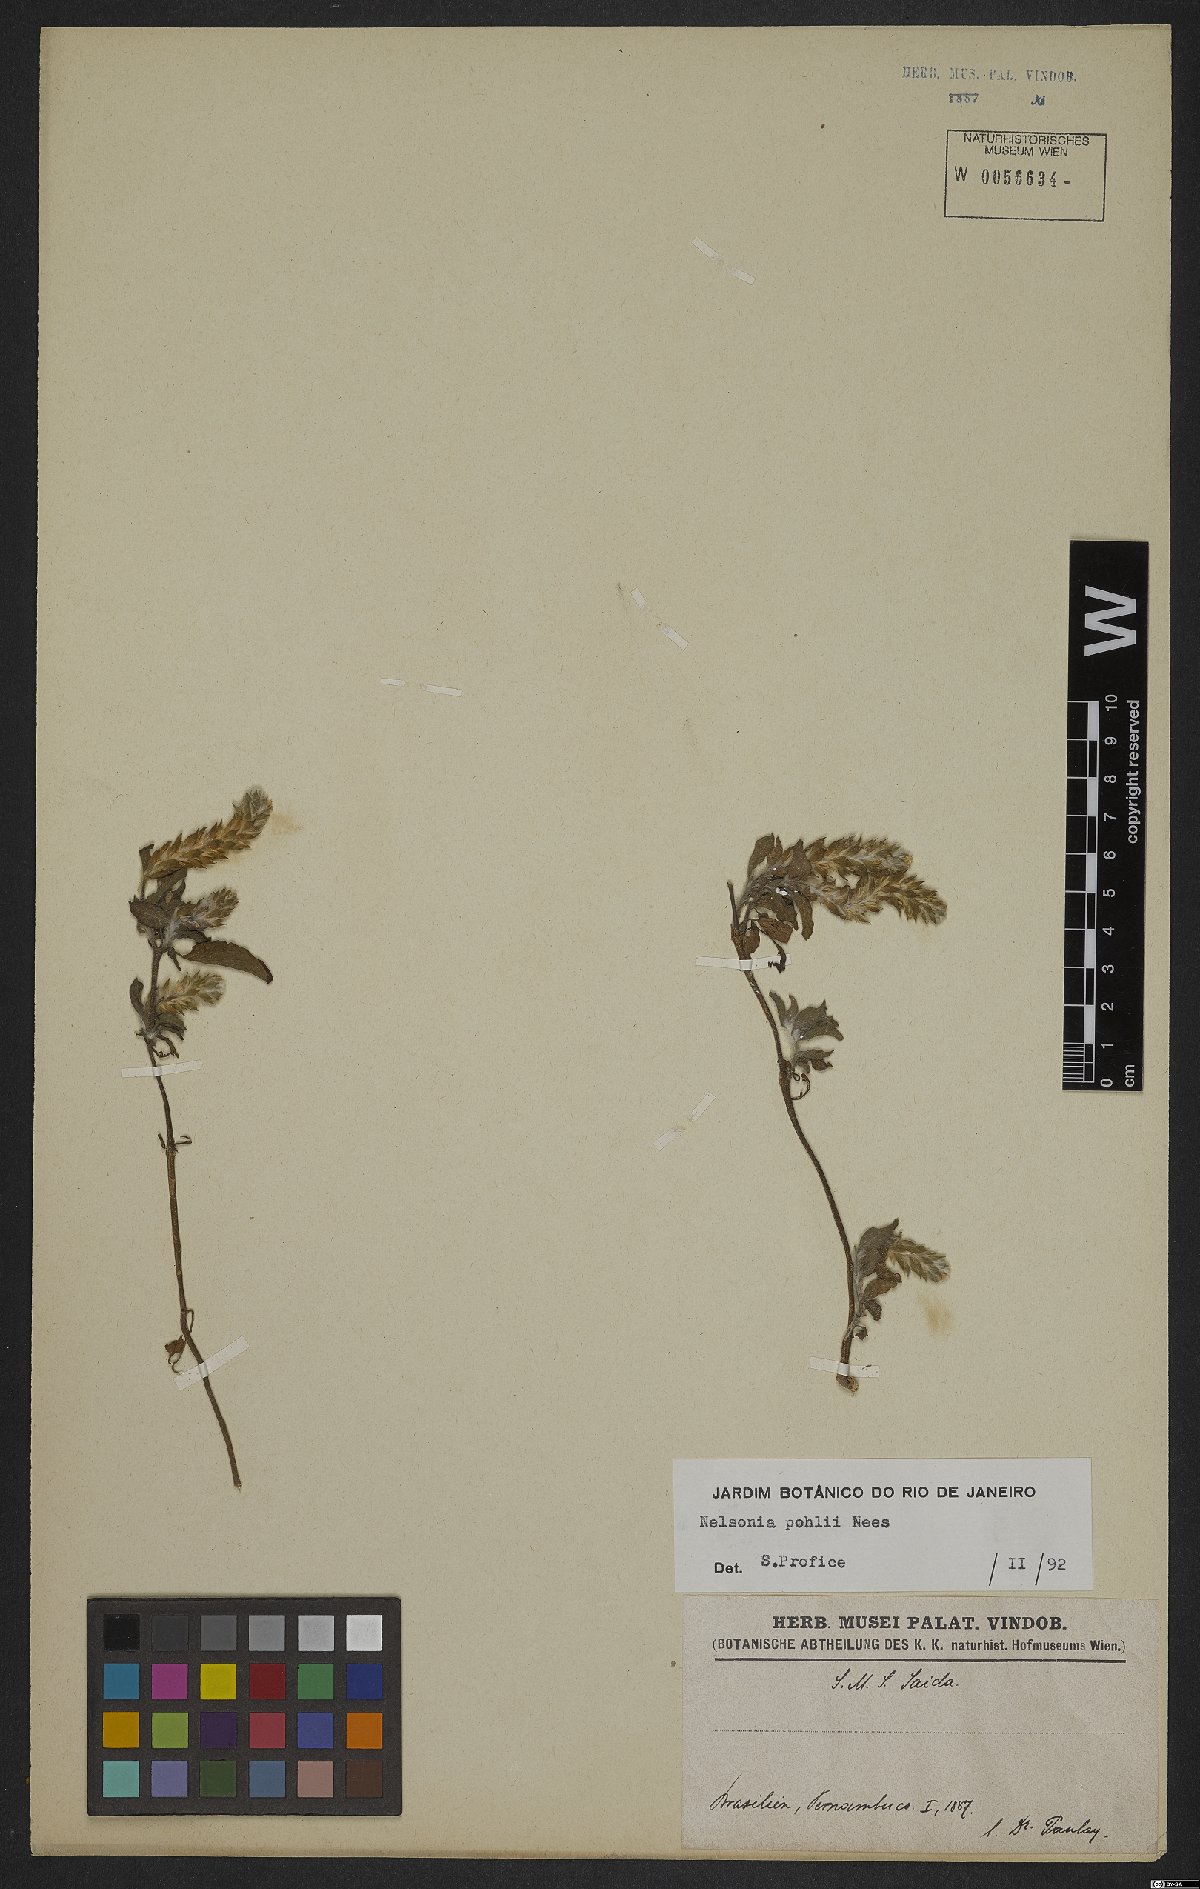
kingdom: Plantae
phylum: Tracheophyta
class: Magnoliopsida
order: Lamiales
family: Acanthaceae
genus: Nelsonia
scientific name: Nelsonia canescens
